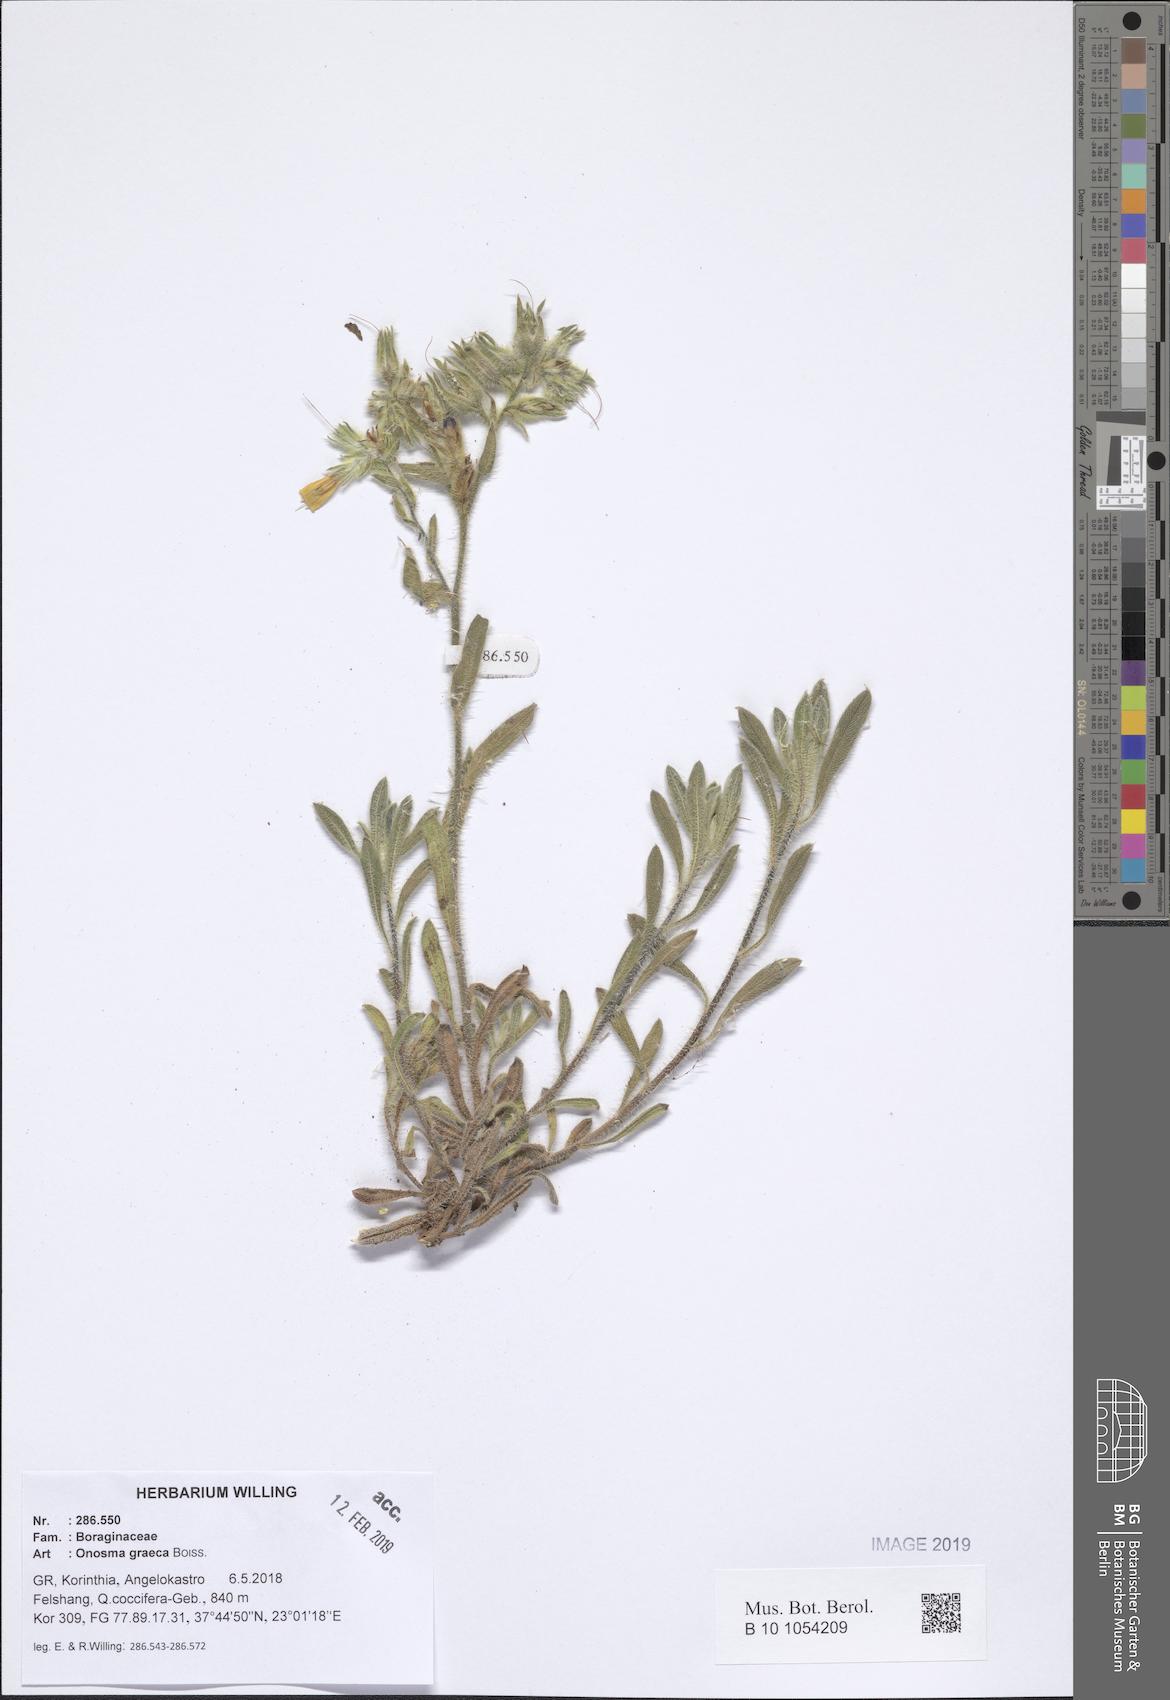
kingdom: Plantae
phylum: Tracheophyta
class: Magnoliopsida
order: Boraginales
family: Boraginaceae
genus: Onosma
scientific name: Onosma graeca
